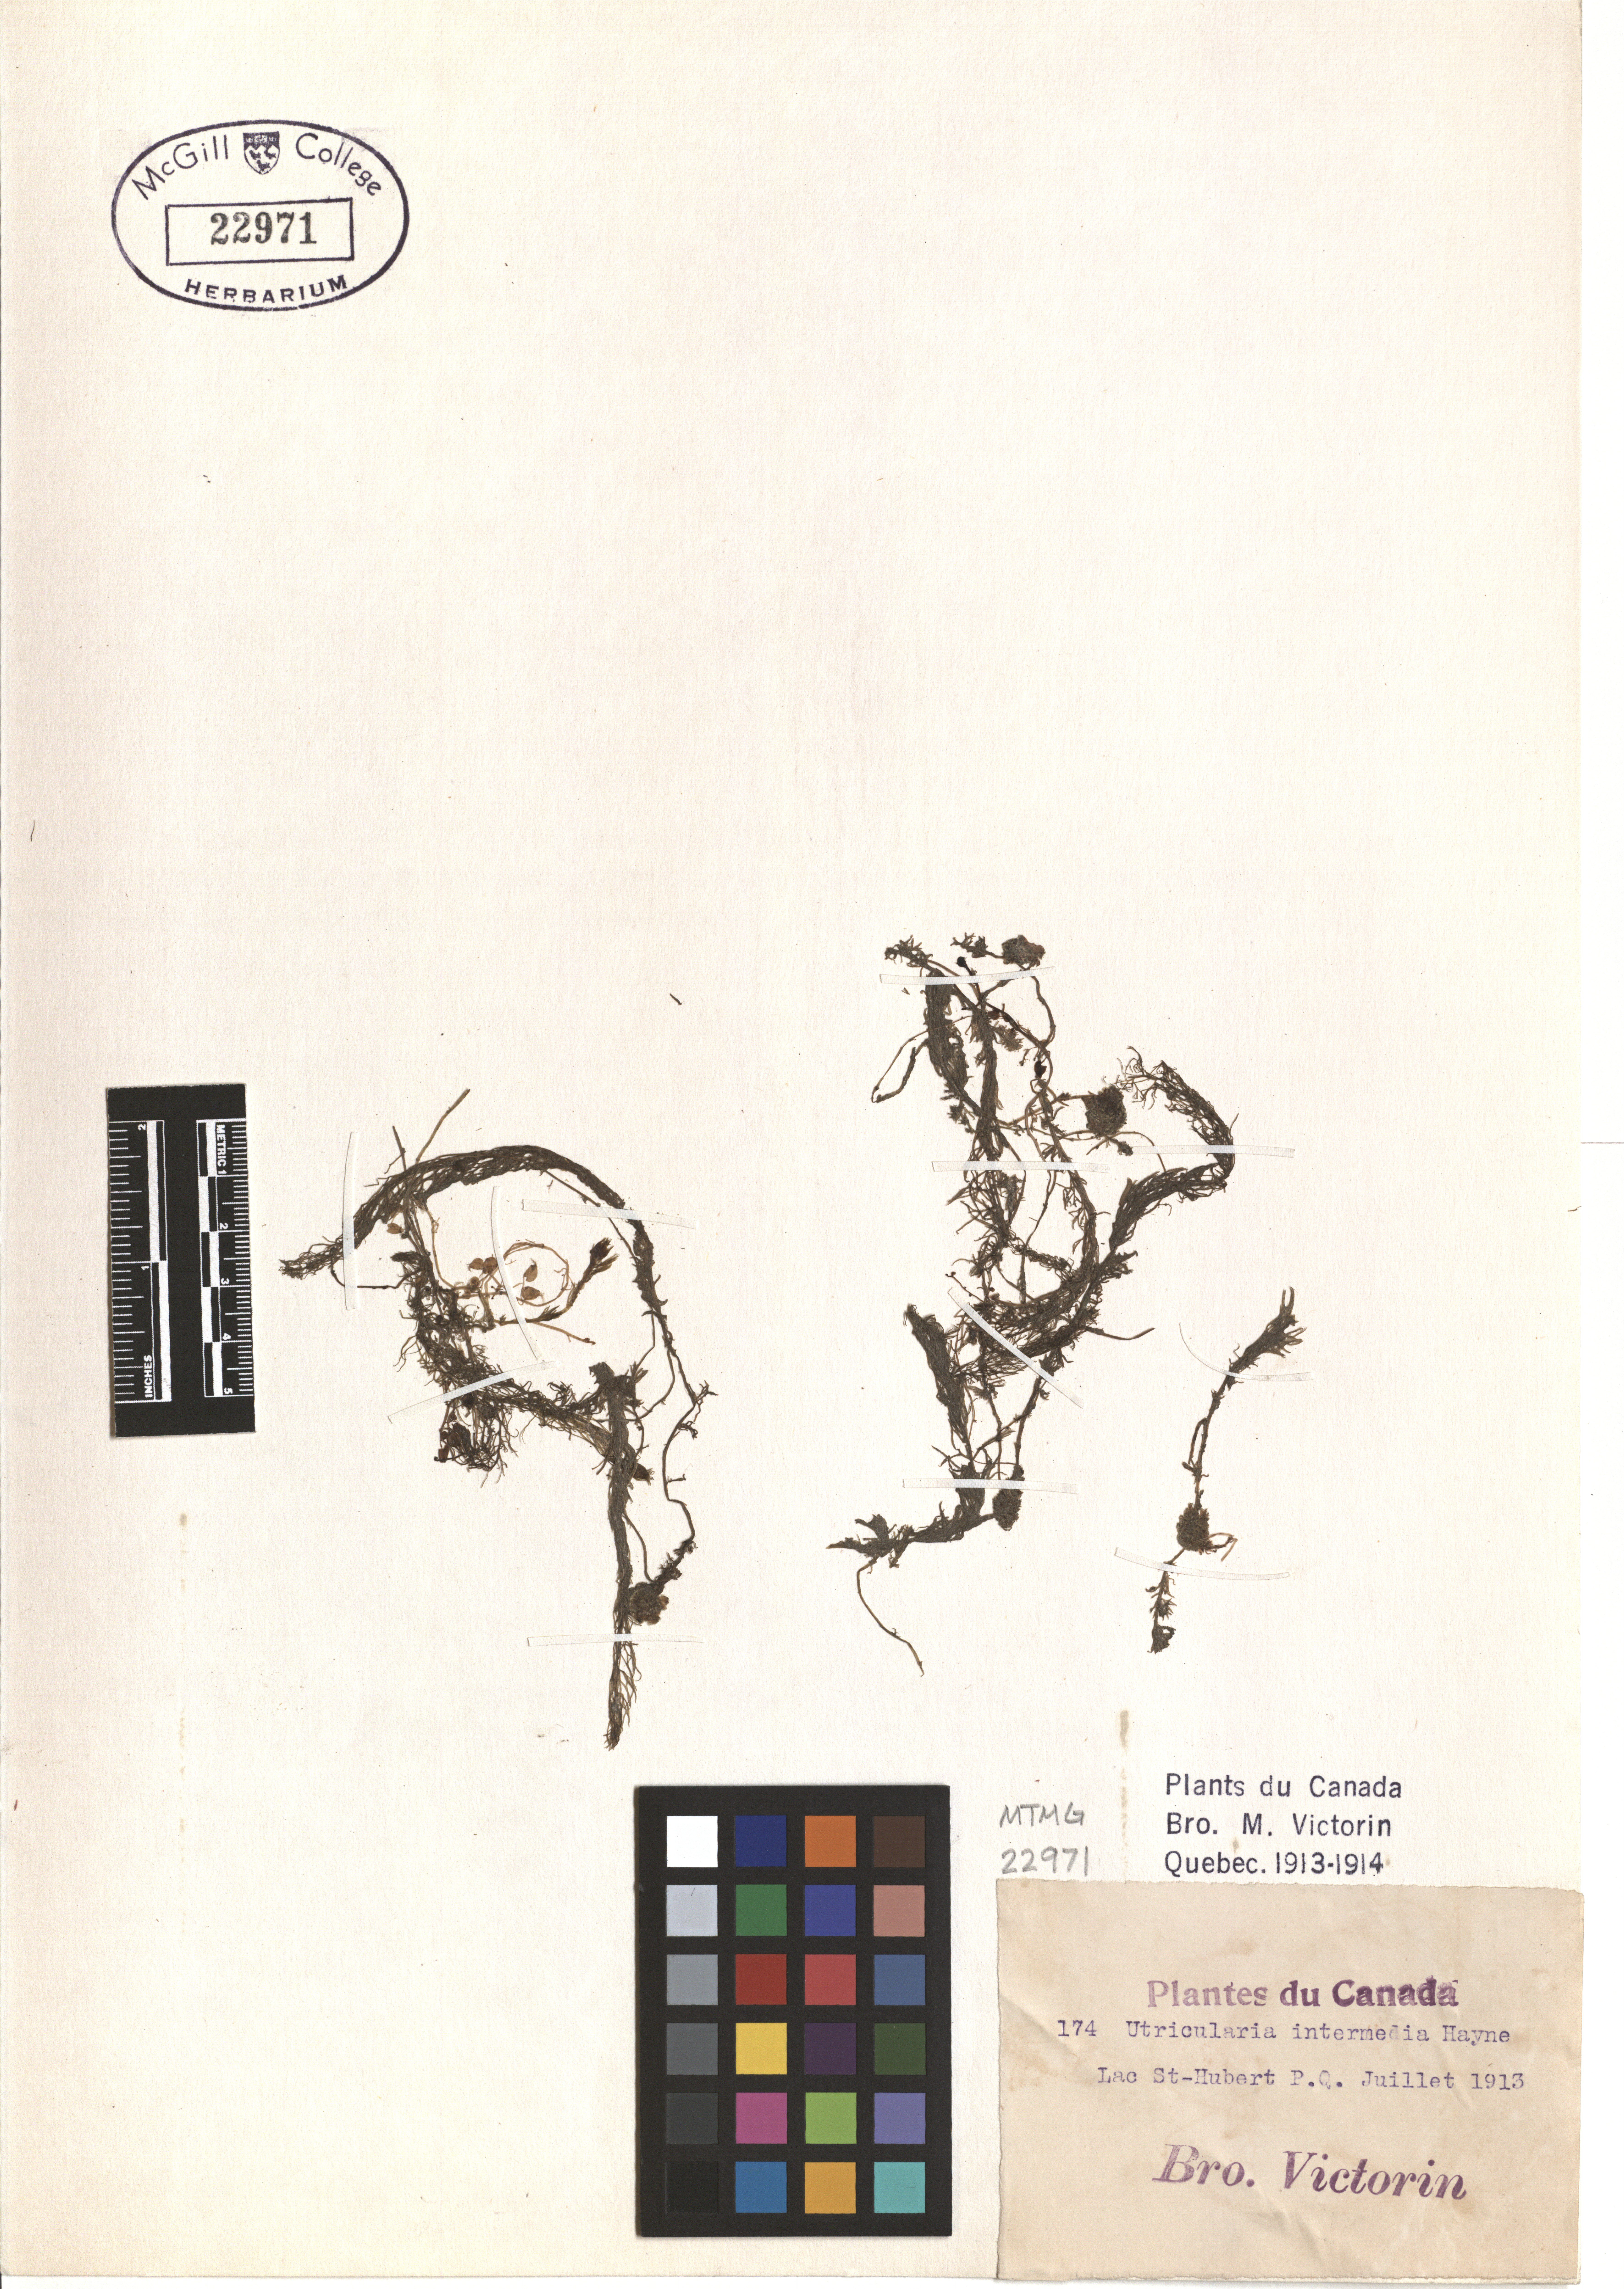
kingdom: Plantae
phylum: Tracheophyta
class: Magnoliopsida
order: Lamiales
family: Lentibulariaceae
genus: Utricularia
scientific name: Utricularia intermedia
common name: Intermediate bladderwort
